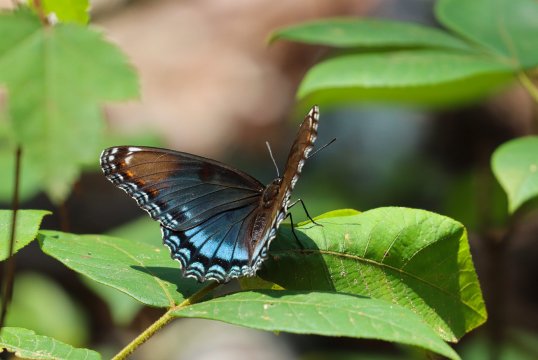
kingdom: Animalia
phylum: Arthropoda
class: Insecta
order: Lepidoptera
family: Nymphalidae
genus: Limenitis
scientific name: Limenitis arthemis
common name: Red-spotted Admiral
